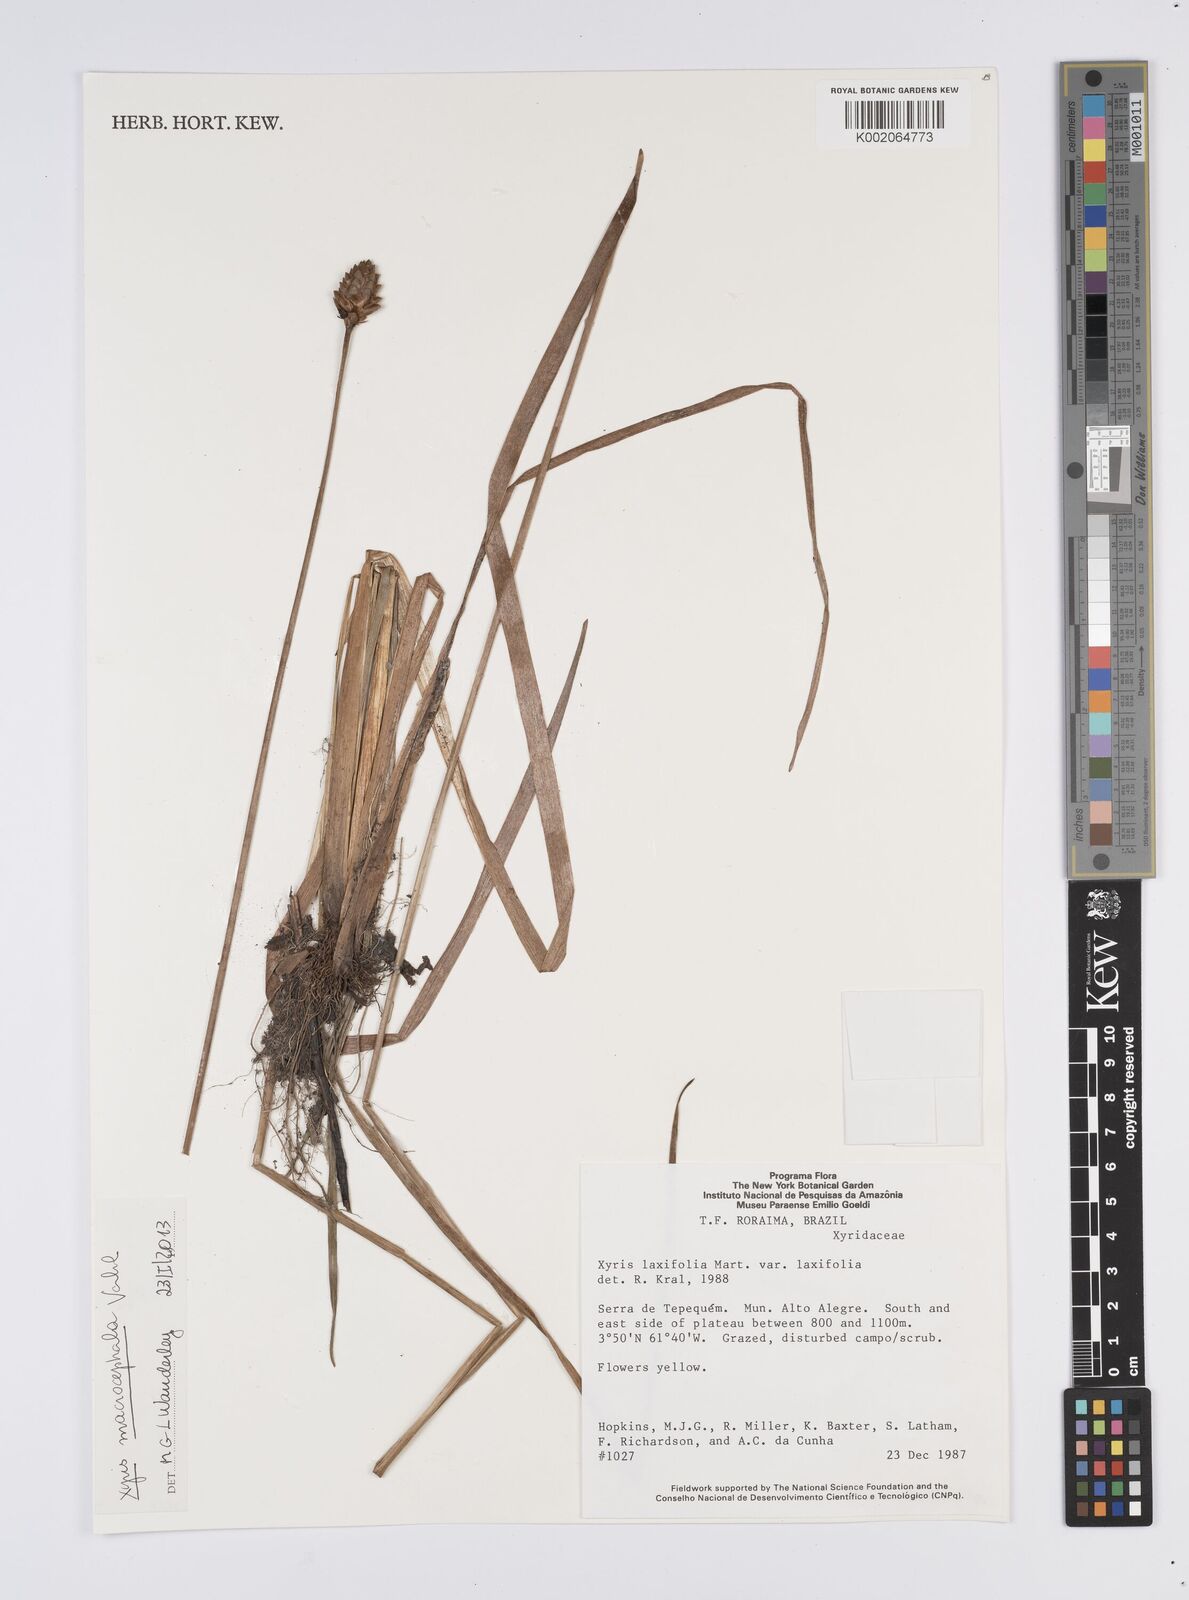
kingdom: Plantae
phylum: Tracheophyta
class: Liliopsida
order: Poales
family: Xyridaceae
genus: Xyris
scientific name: Xyris jupicai
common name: Richard's yelloweyed grass
